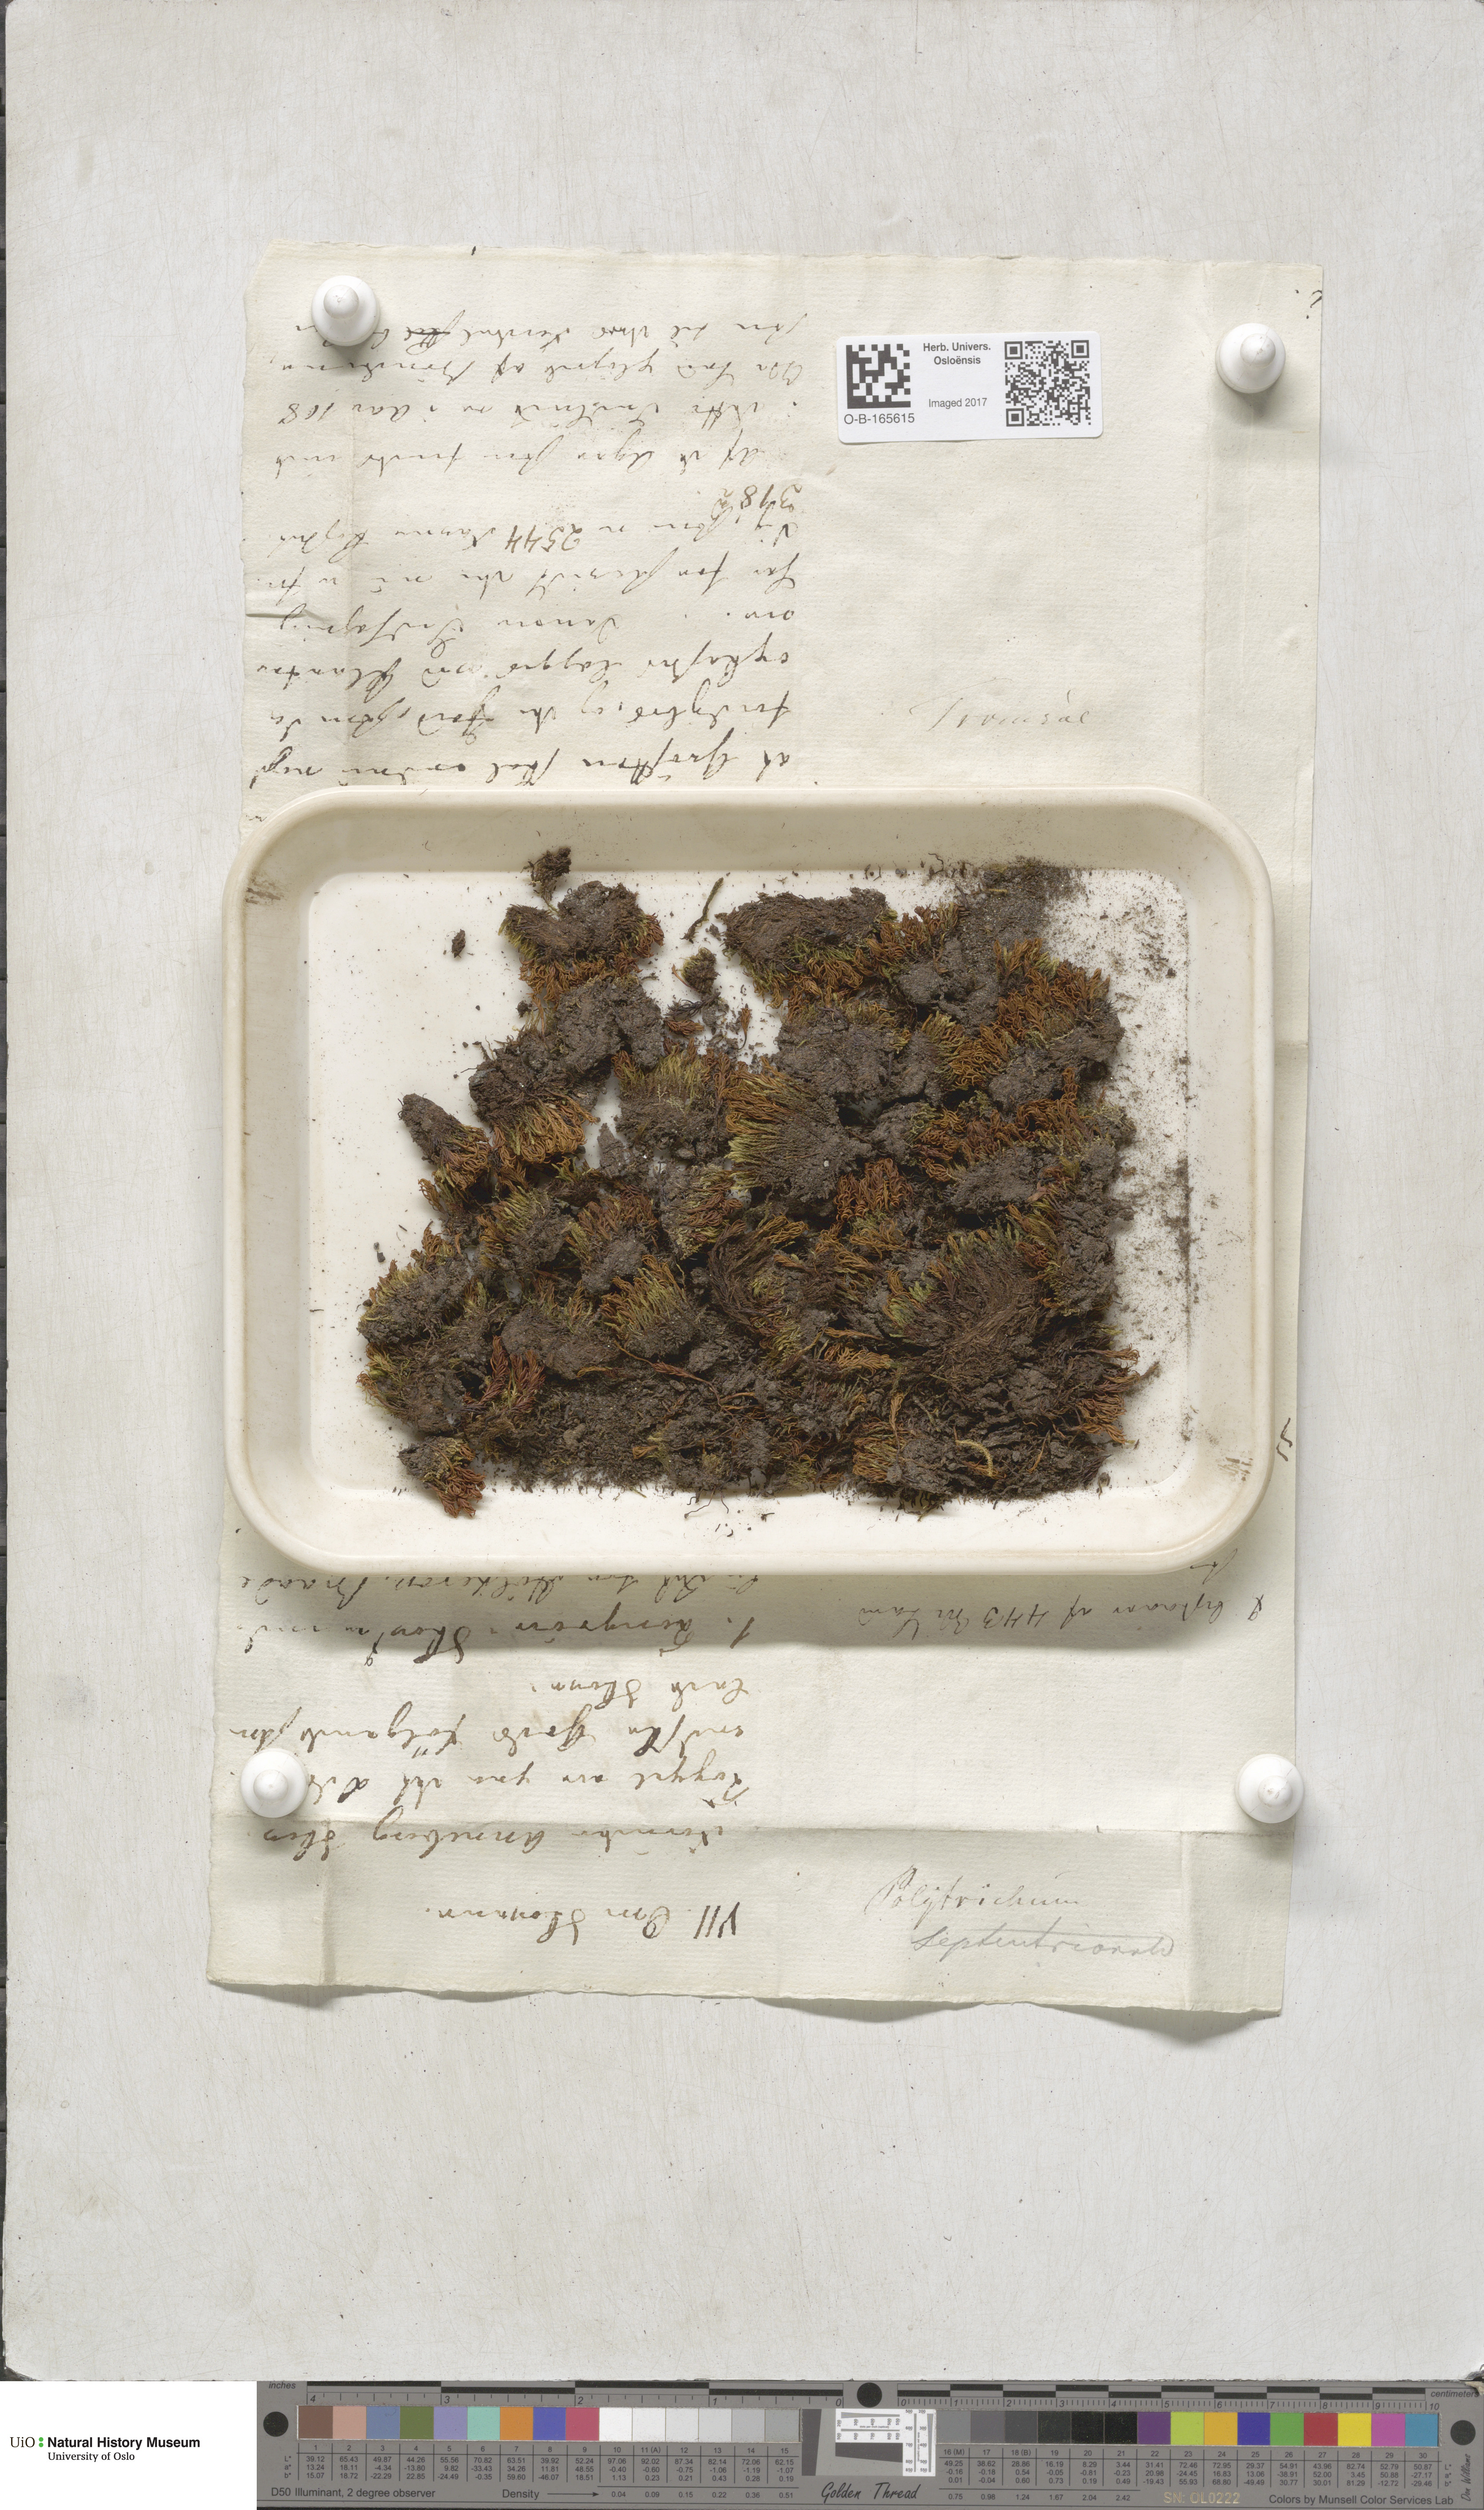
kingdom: Plantae
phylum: Bryophyta
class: Polytrichopsida
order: Polytrichales
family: Polytrichaceae
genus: Polytrichastrum
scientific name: Polytrichastrum sexangulare
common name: Northern haircap
